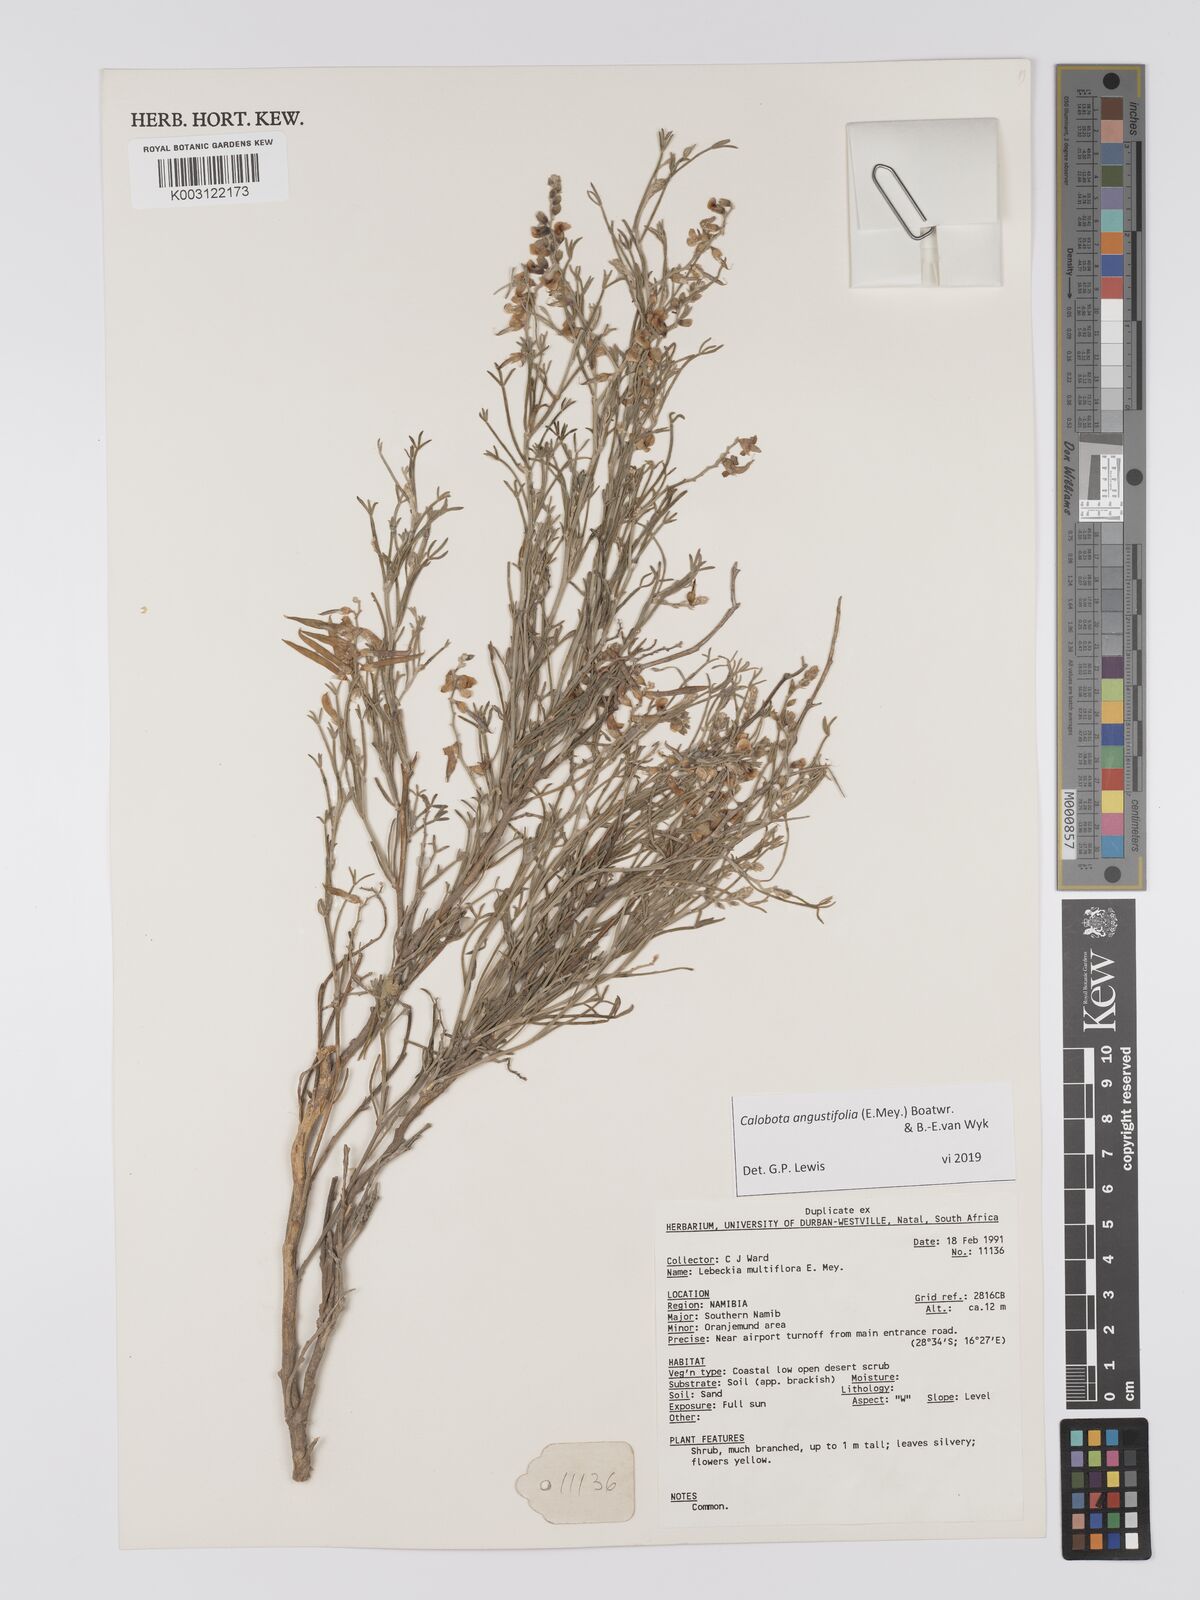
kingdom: Plantae
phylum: Tracheophyta
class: Magnoliopsida
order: Fabales
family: Fabaceae
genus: Calobota
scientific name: Calobota angustifolia
